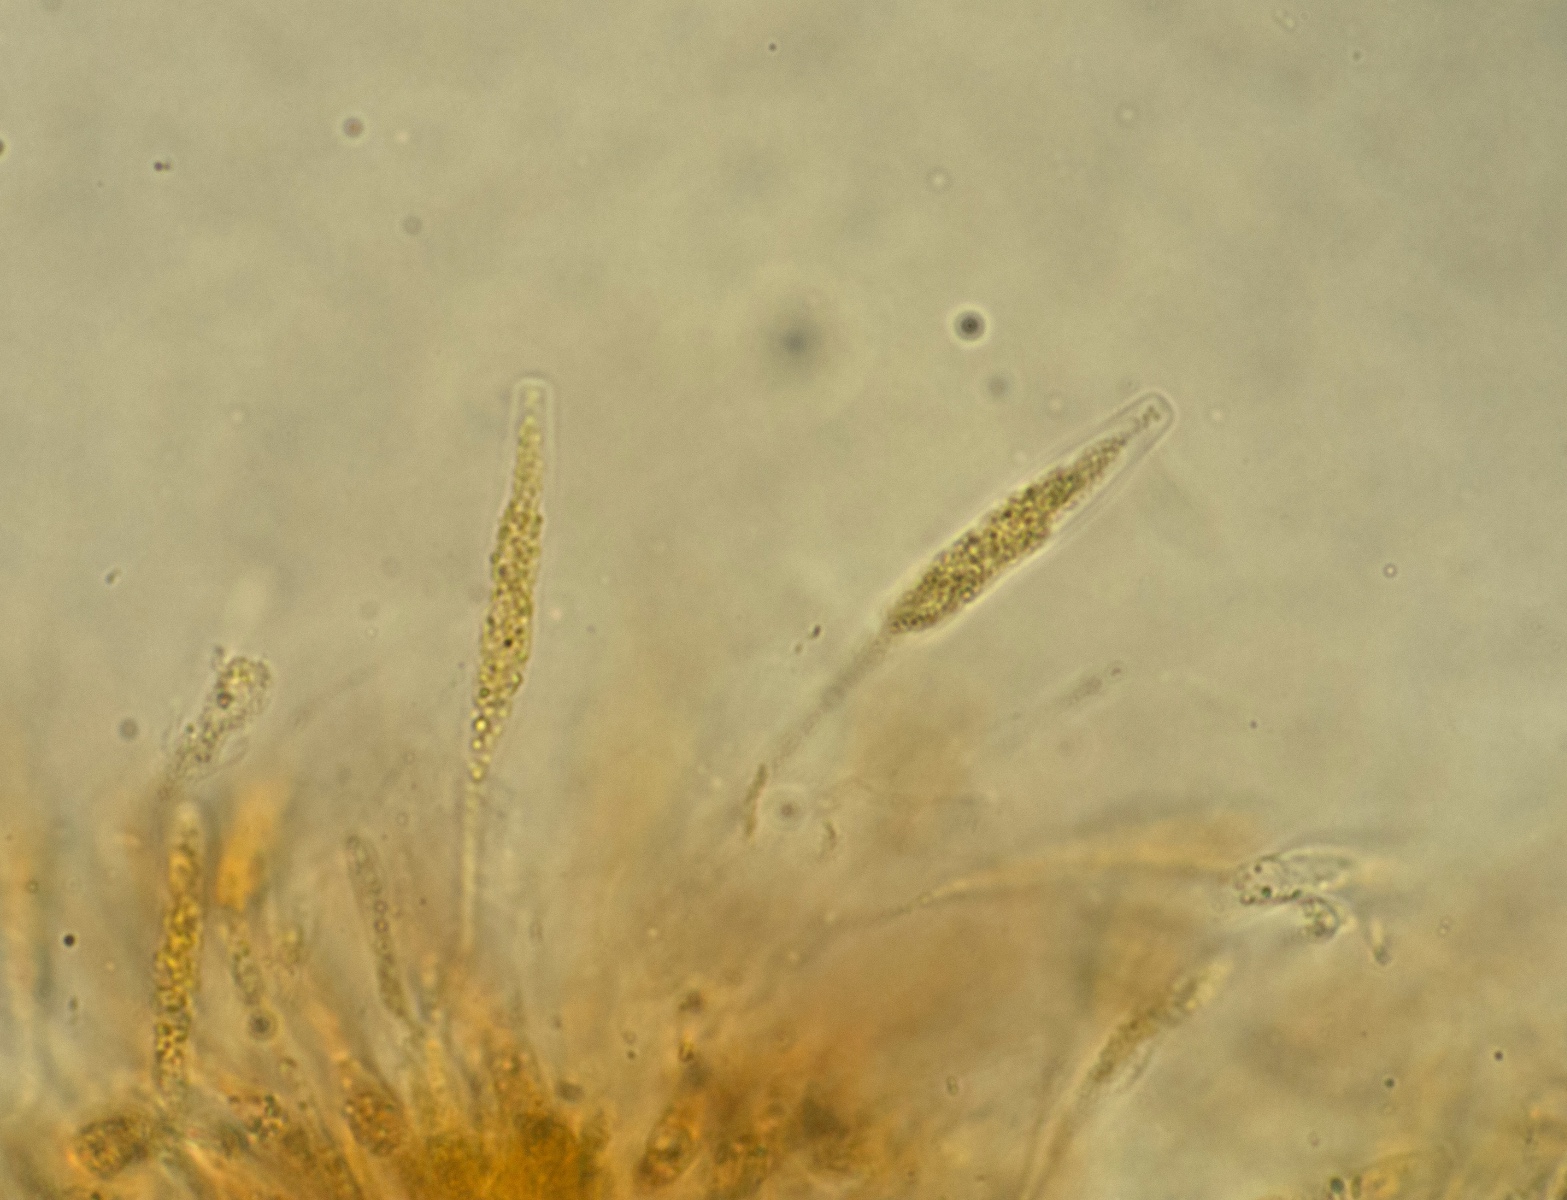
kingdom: Fungi
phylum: Ascomycota
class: Sordariomycetes
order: Xylariales
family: Diatrypaceae
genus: Eutypella
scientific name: Eutypella stellulata
